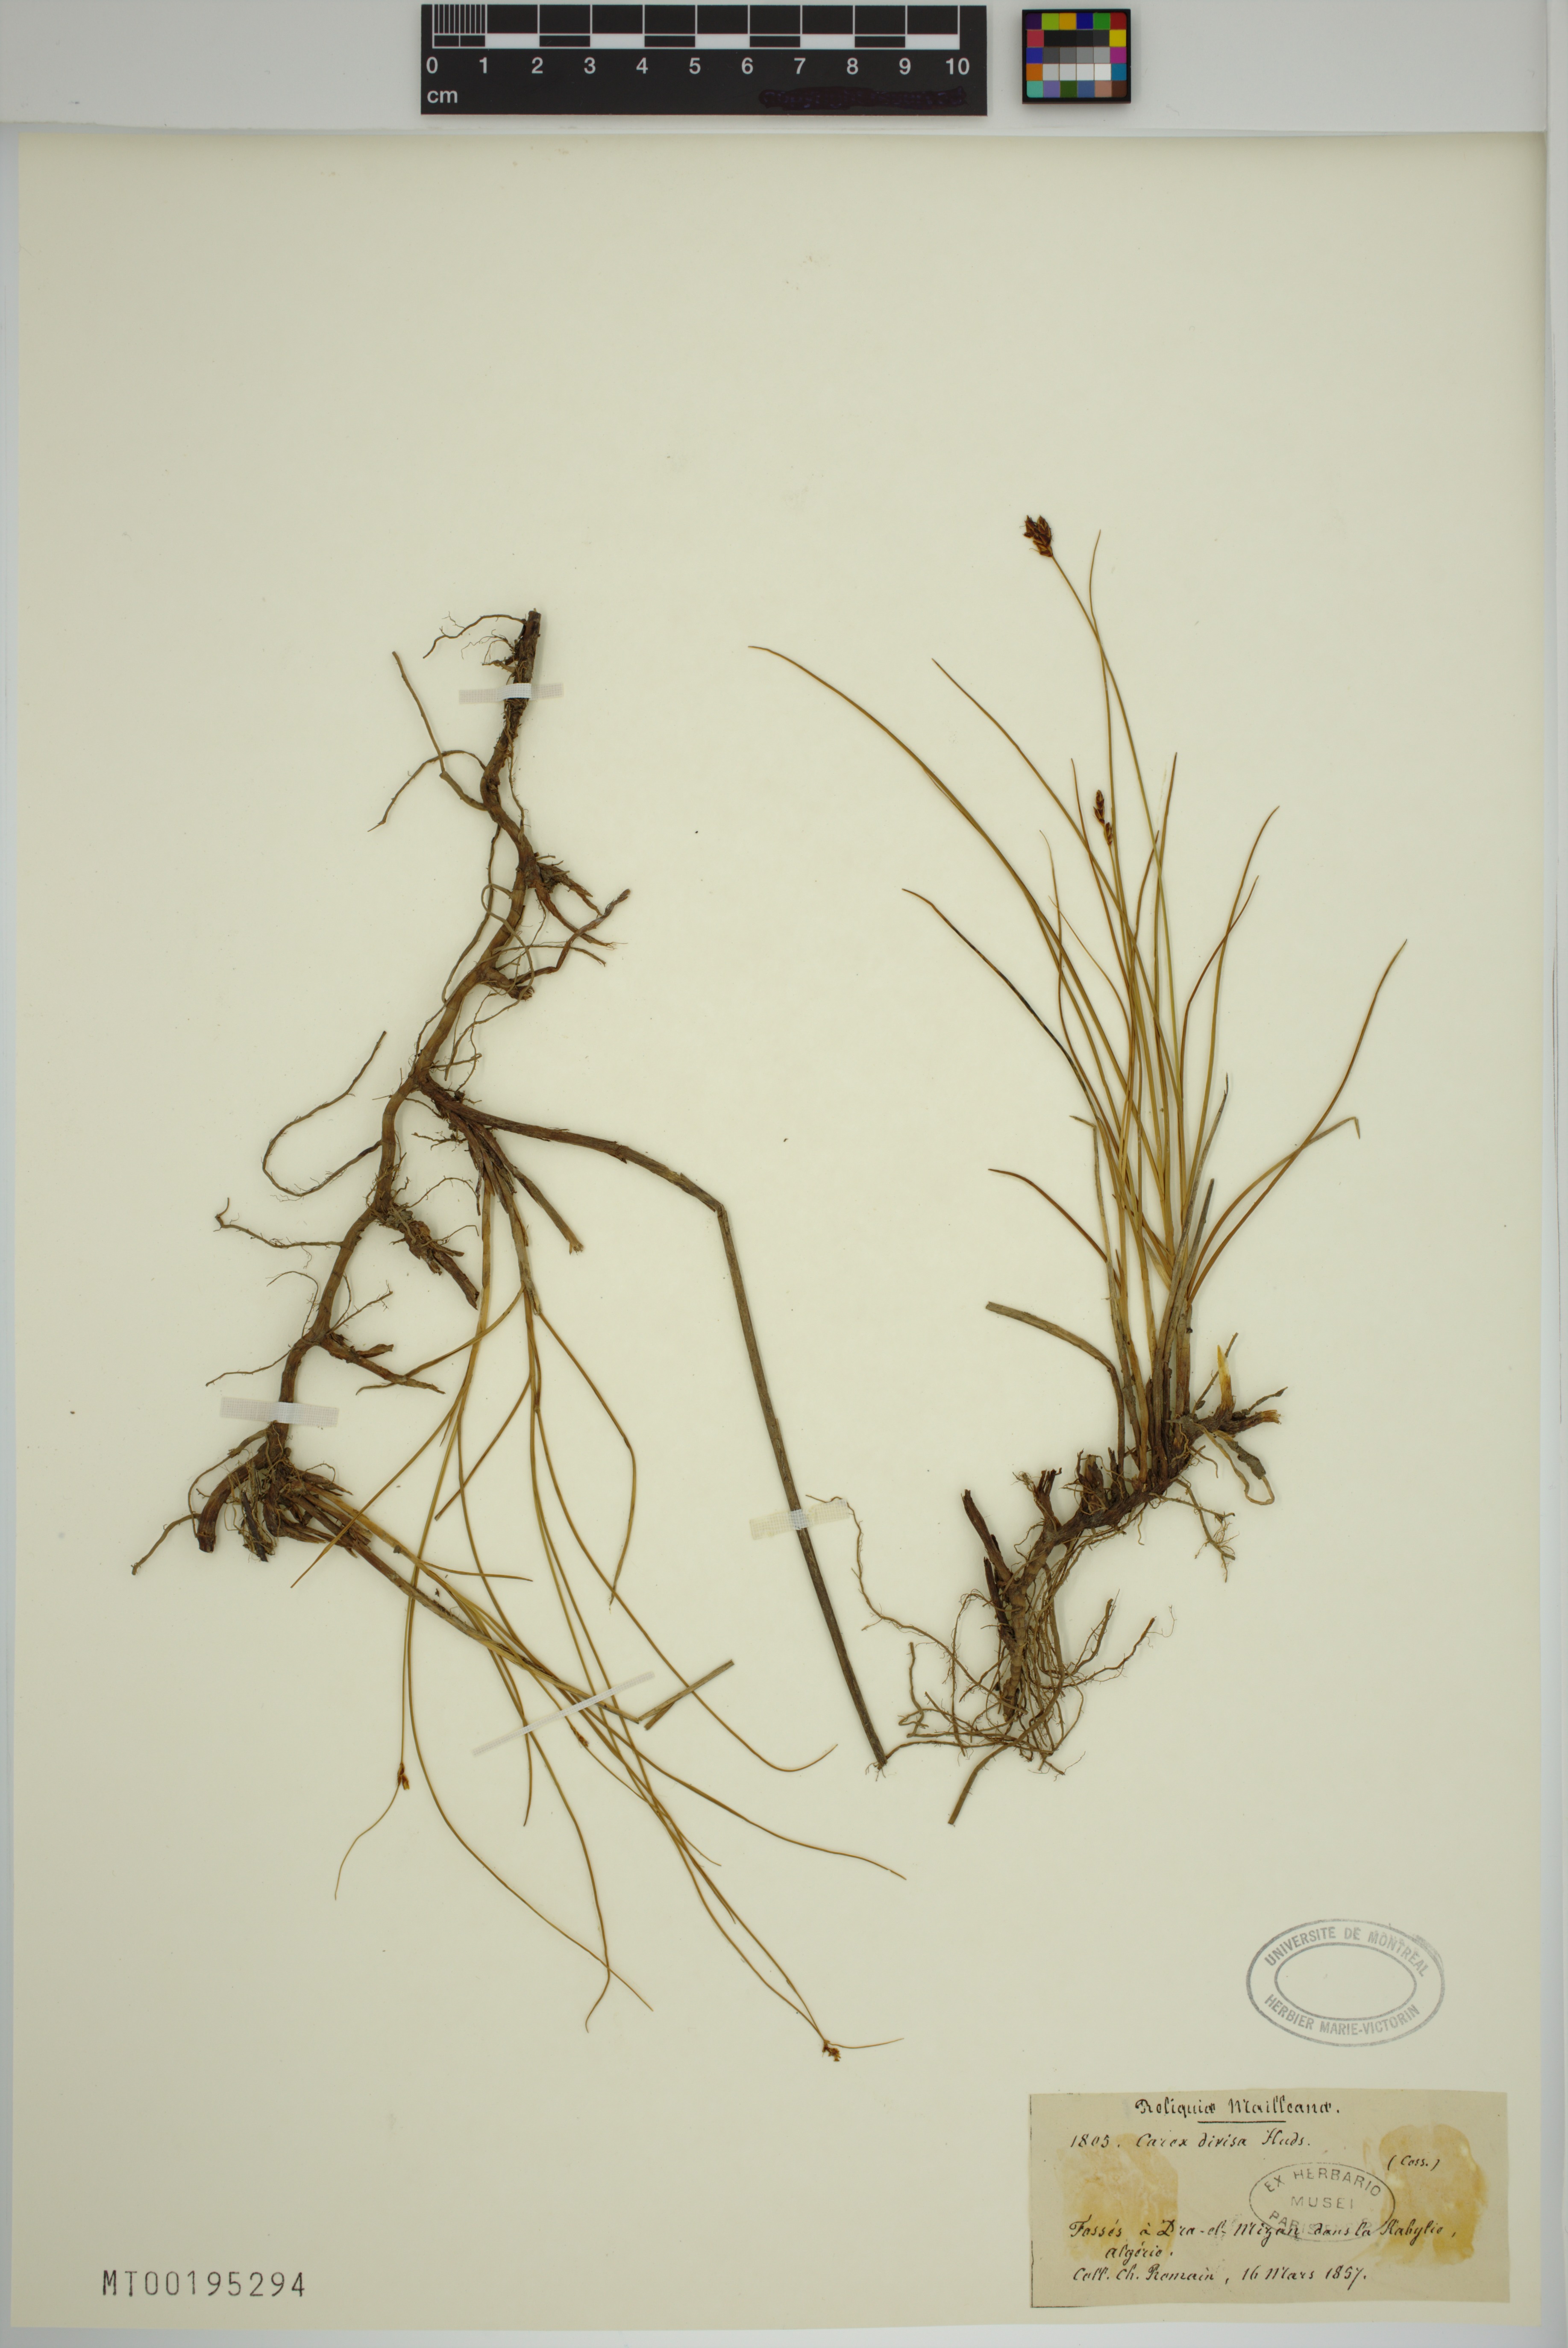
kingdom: Plantae
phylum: Tracheophyta
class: Liliopsida
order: Poales
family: Cyperaceae
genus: Carex
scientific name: Carex divisa
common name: Divided sedge
